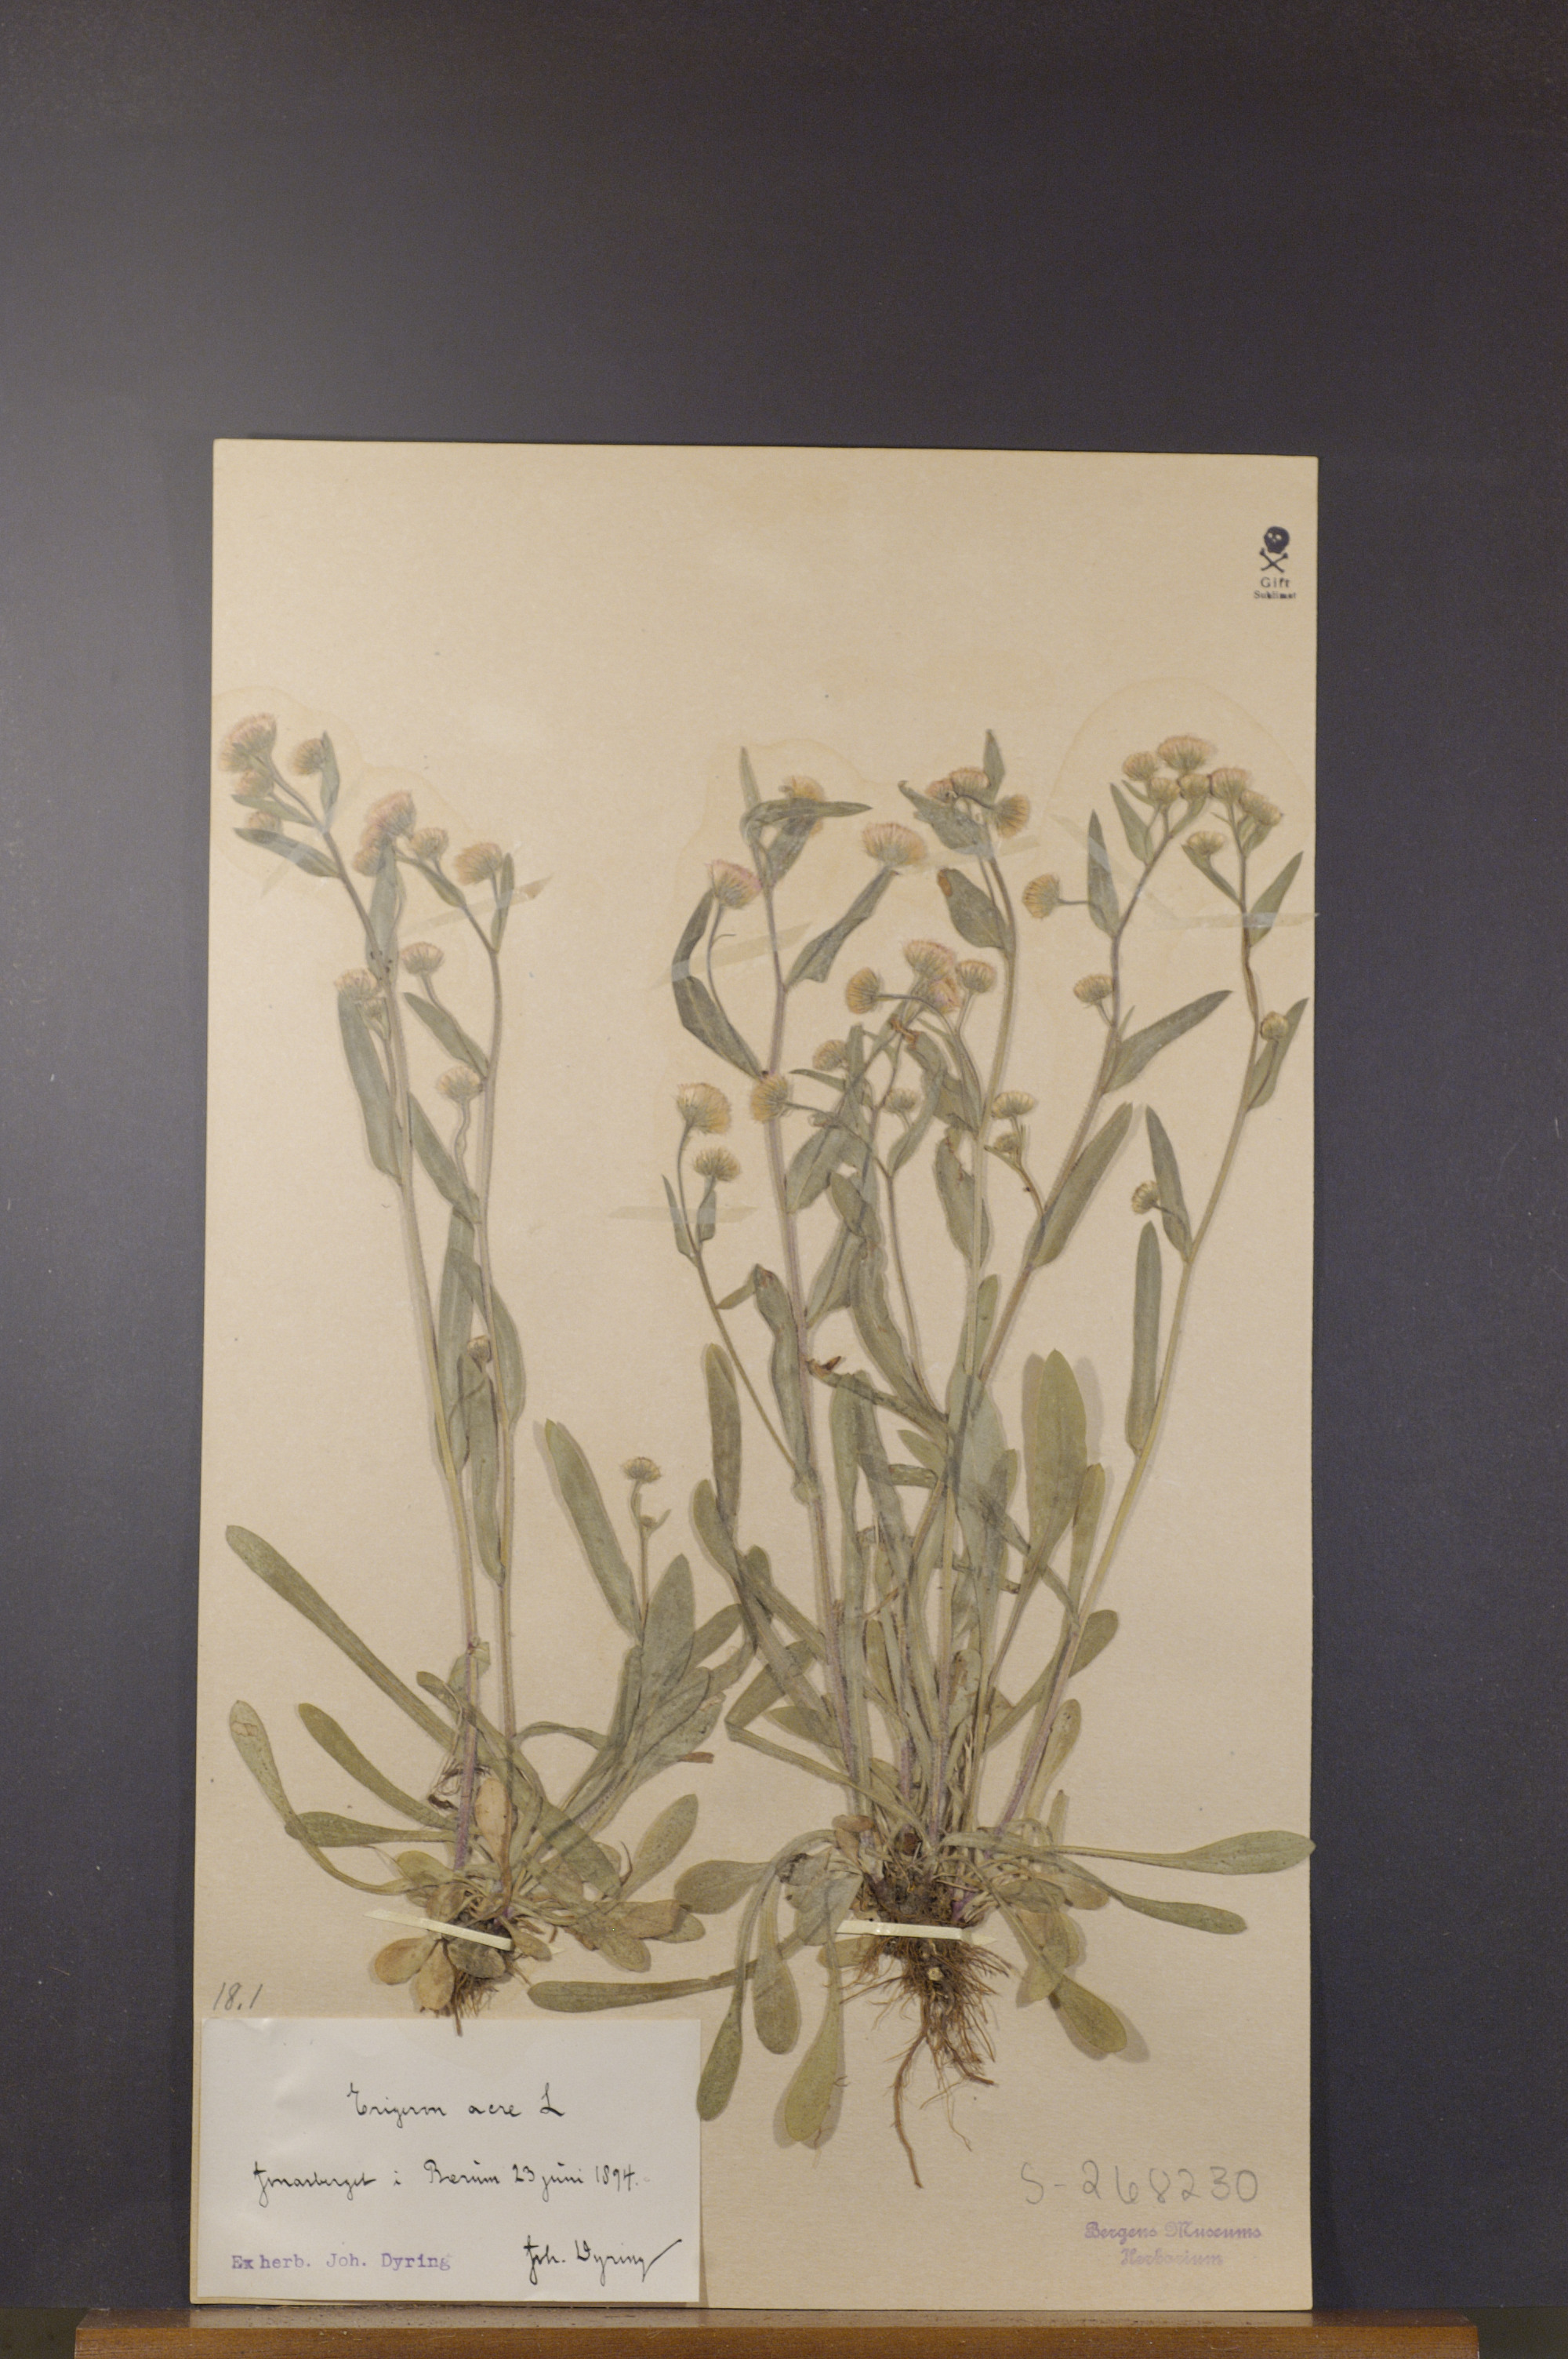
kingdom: Plantae
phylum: Tracheophyta
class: Magnoliopsida
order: Asterales
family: Asteraceae
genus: Erigeron
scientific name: Erigeron acris
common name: Blue fleabane
